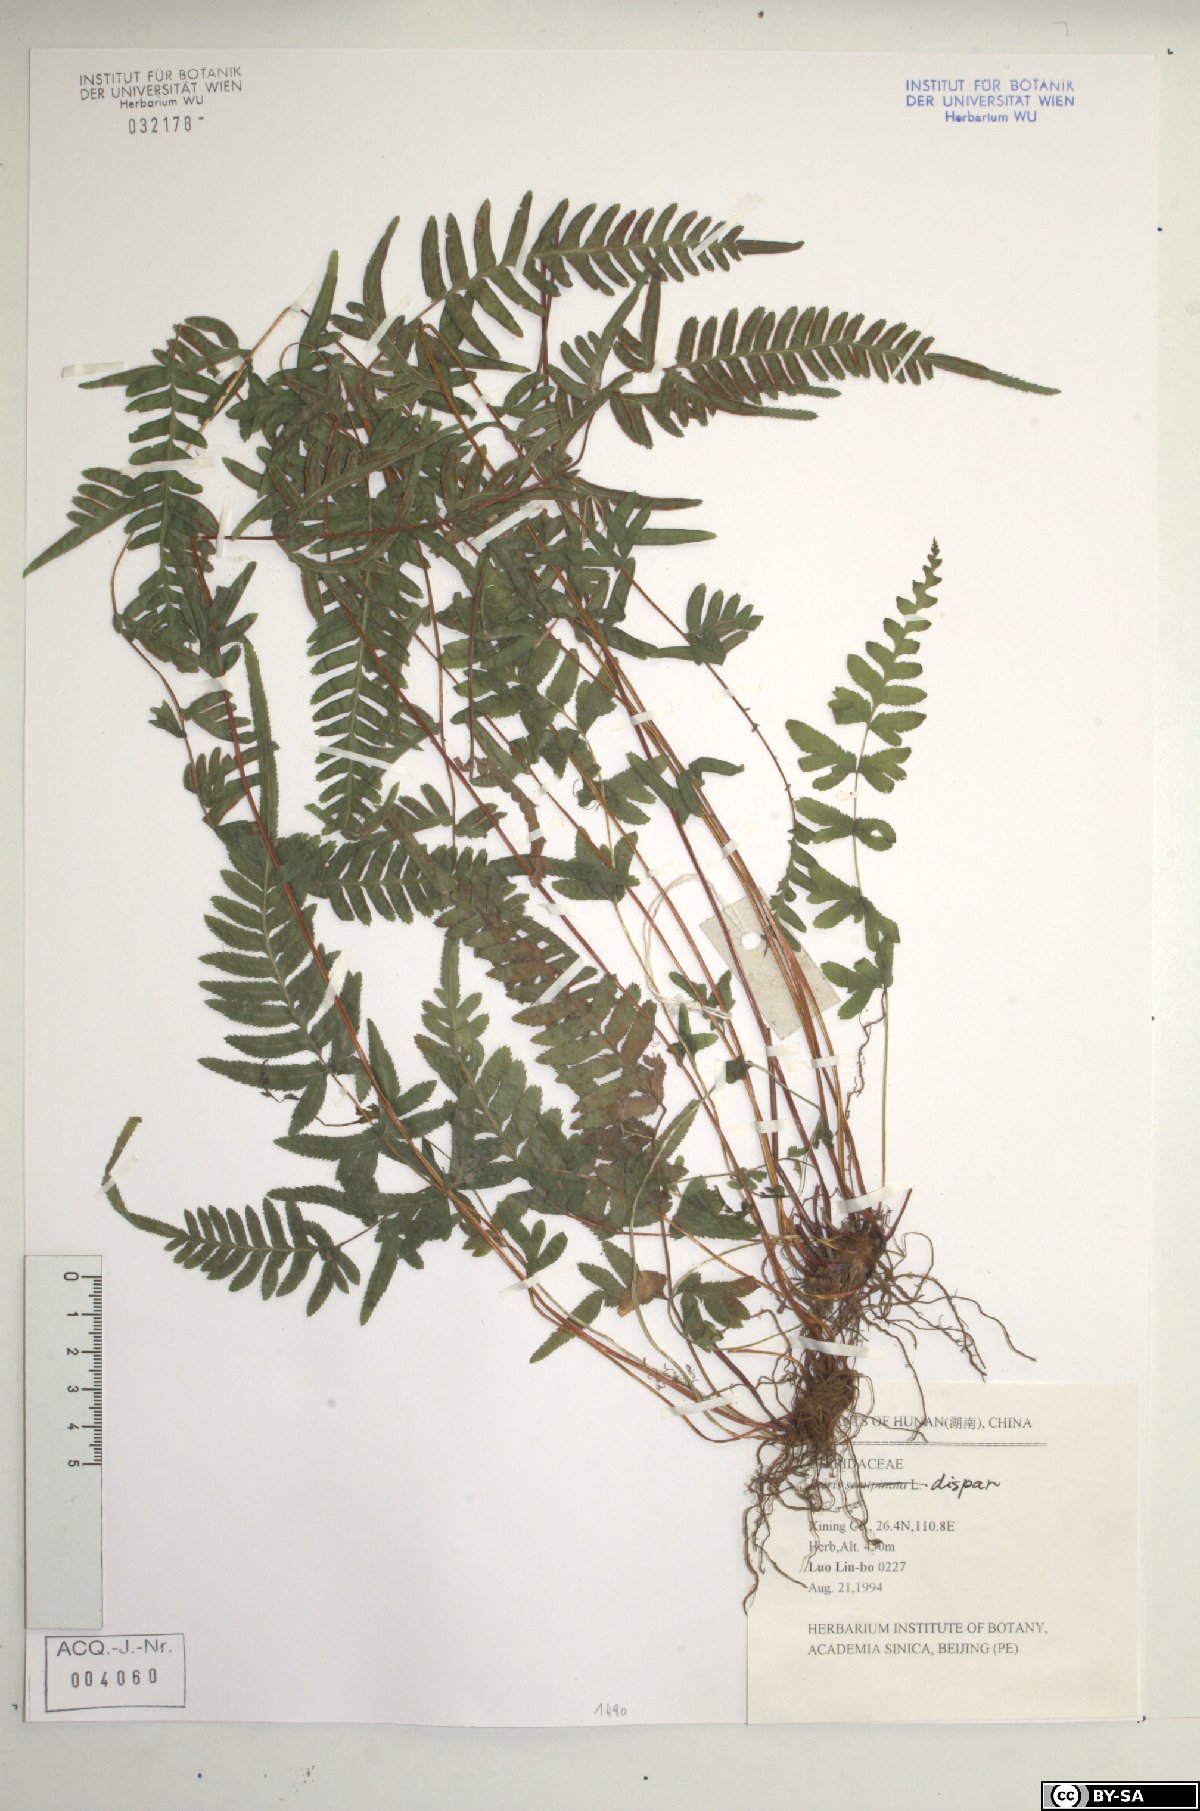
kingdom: Plantae
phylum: Tracheophyta
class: Polypodiopsida
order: Polypodiales
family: Pteridaceae
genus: Pteris
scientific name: Pteris dispar
